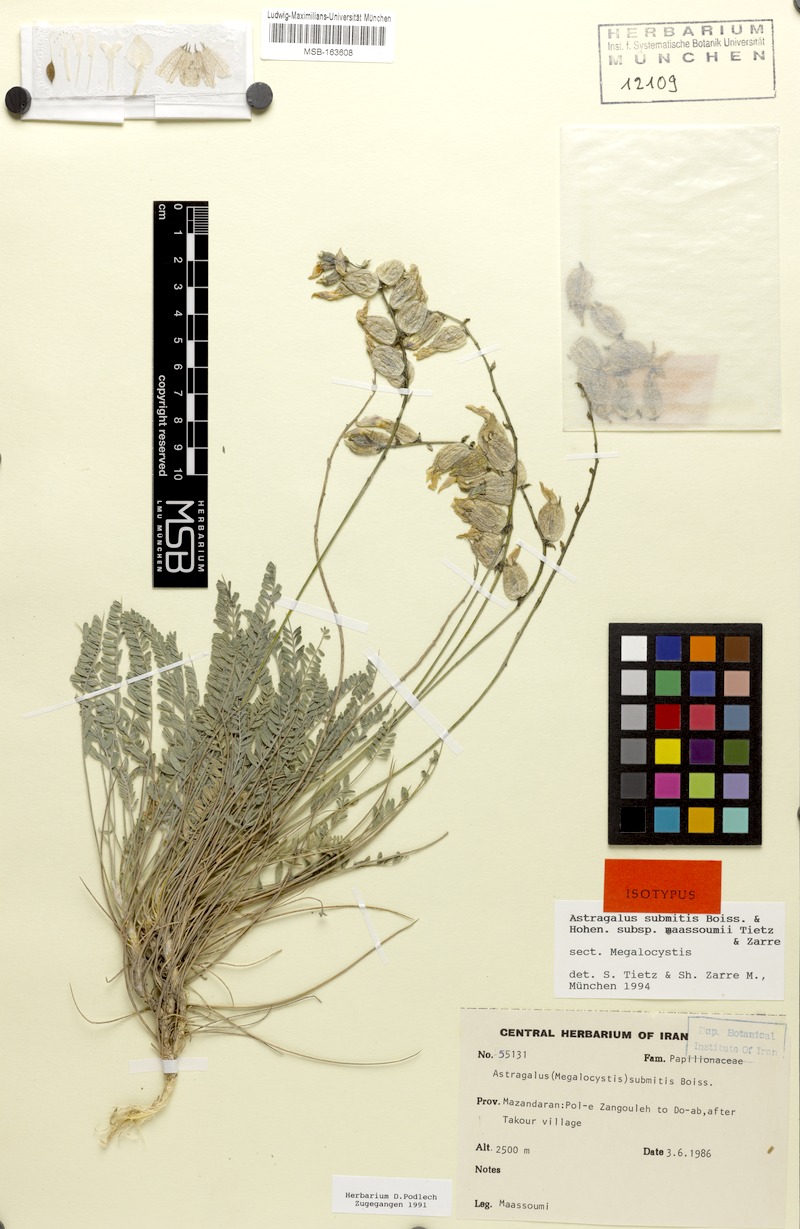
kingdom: Plantae
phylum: Tracheophyta
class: Magnoliopsida
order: Fabales
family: Fabaceae
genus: Astragalus
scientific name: Astragalus yushensis
